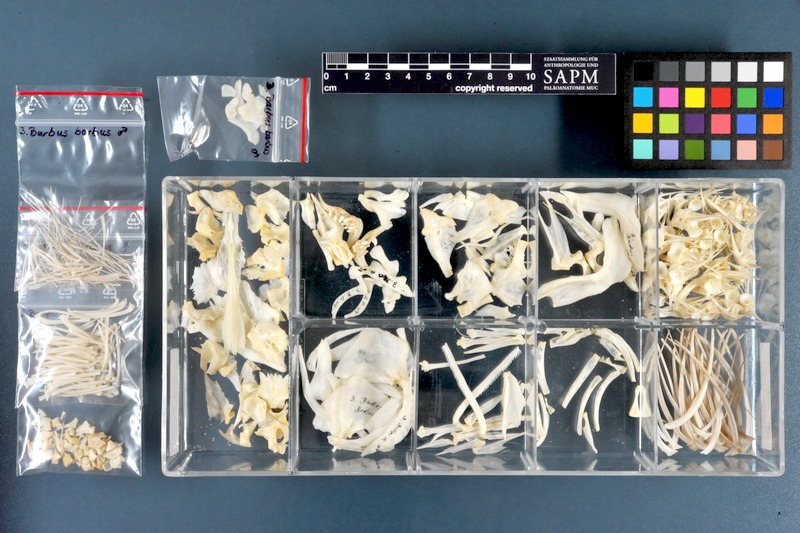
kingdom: Animalia
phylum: Chordata
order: Cypriniformes
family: Cyprinidae
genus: Barbus
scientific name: Barbus barbus
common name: Barbel
